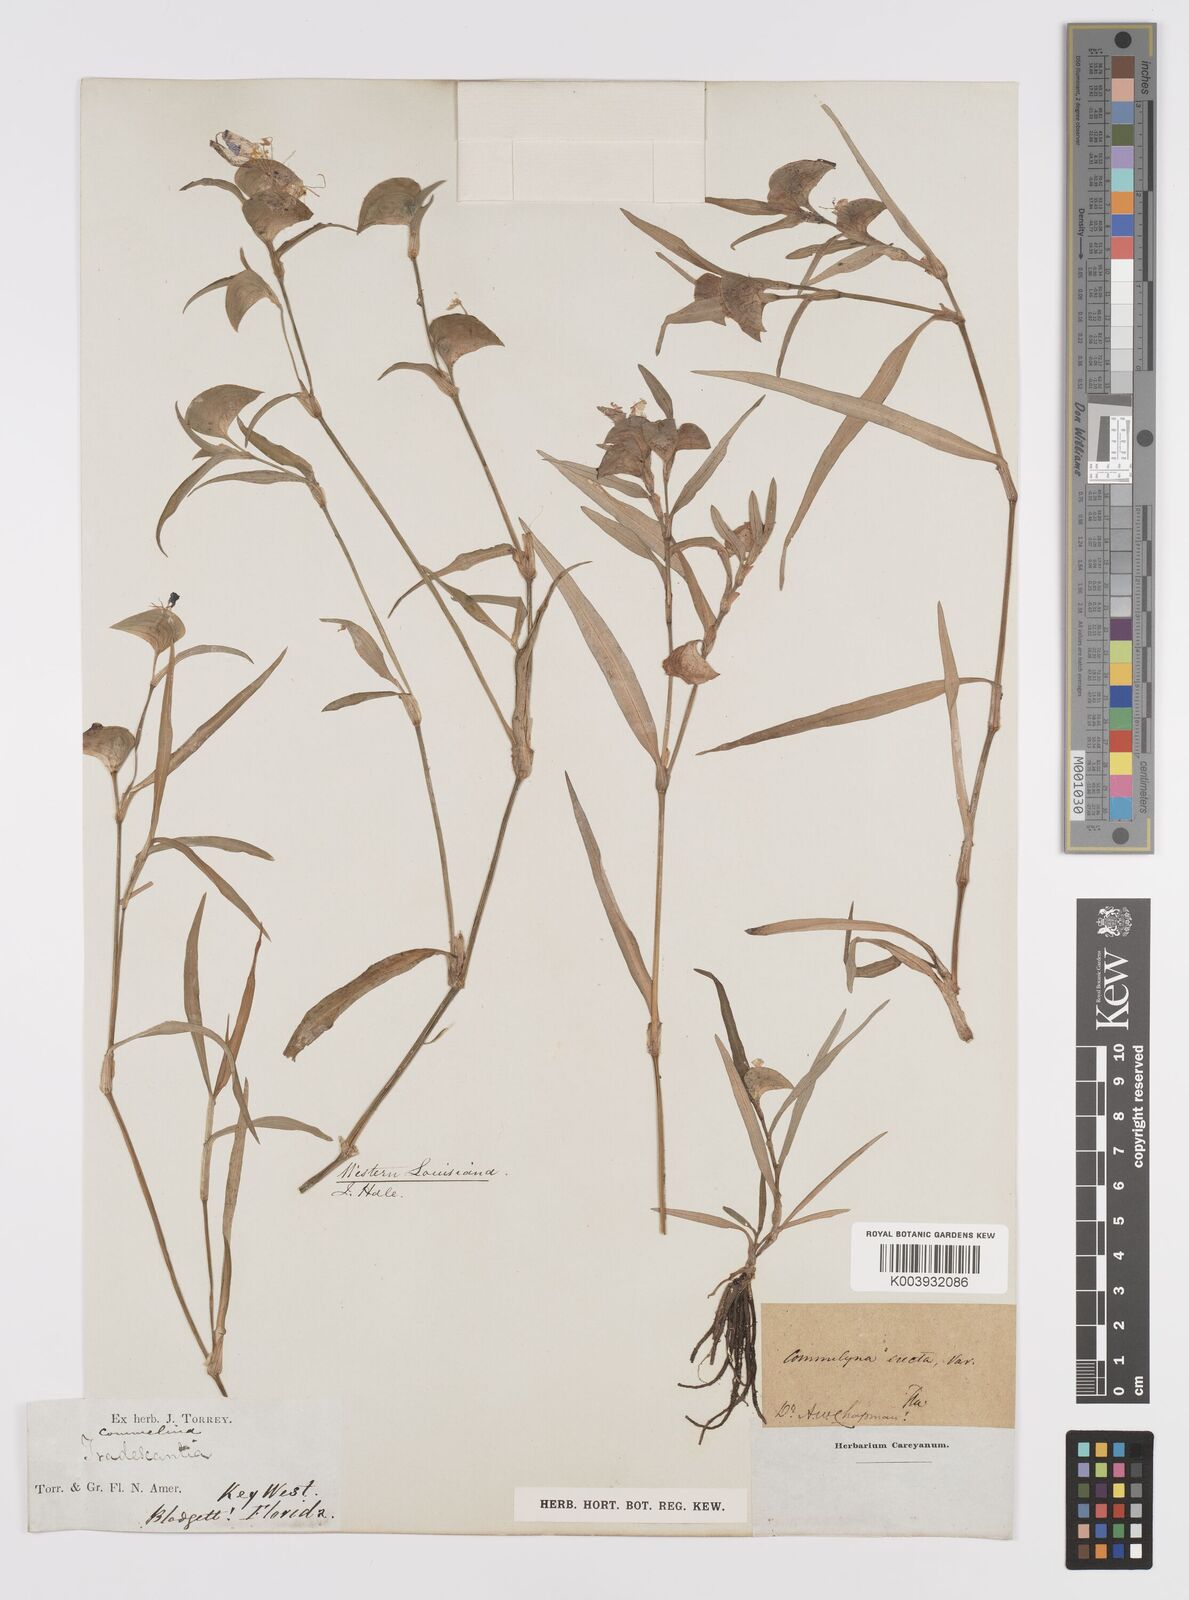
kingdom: Plantae
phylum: Tracheophyta
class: Liliopsida
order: Commelinales
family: Commelinaceae
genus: Commelina
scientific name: Commelina erecta
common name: Blousel blommetjie
